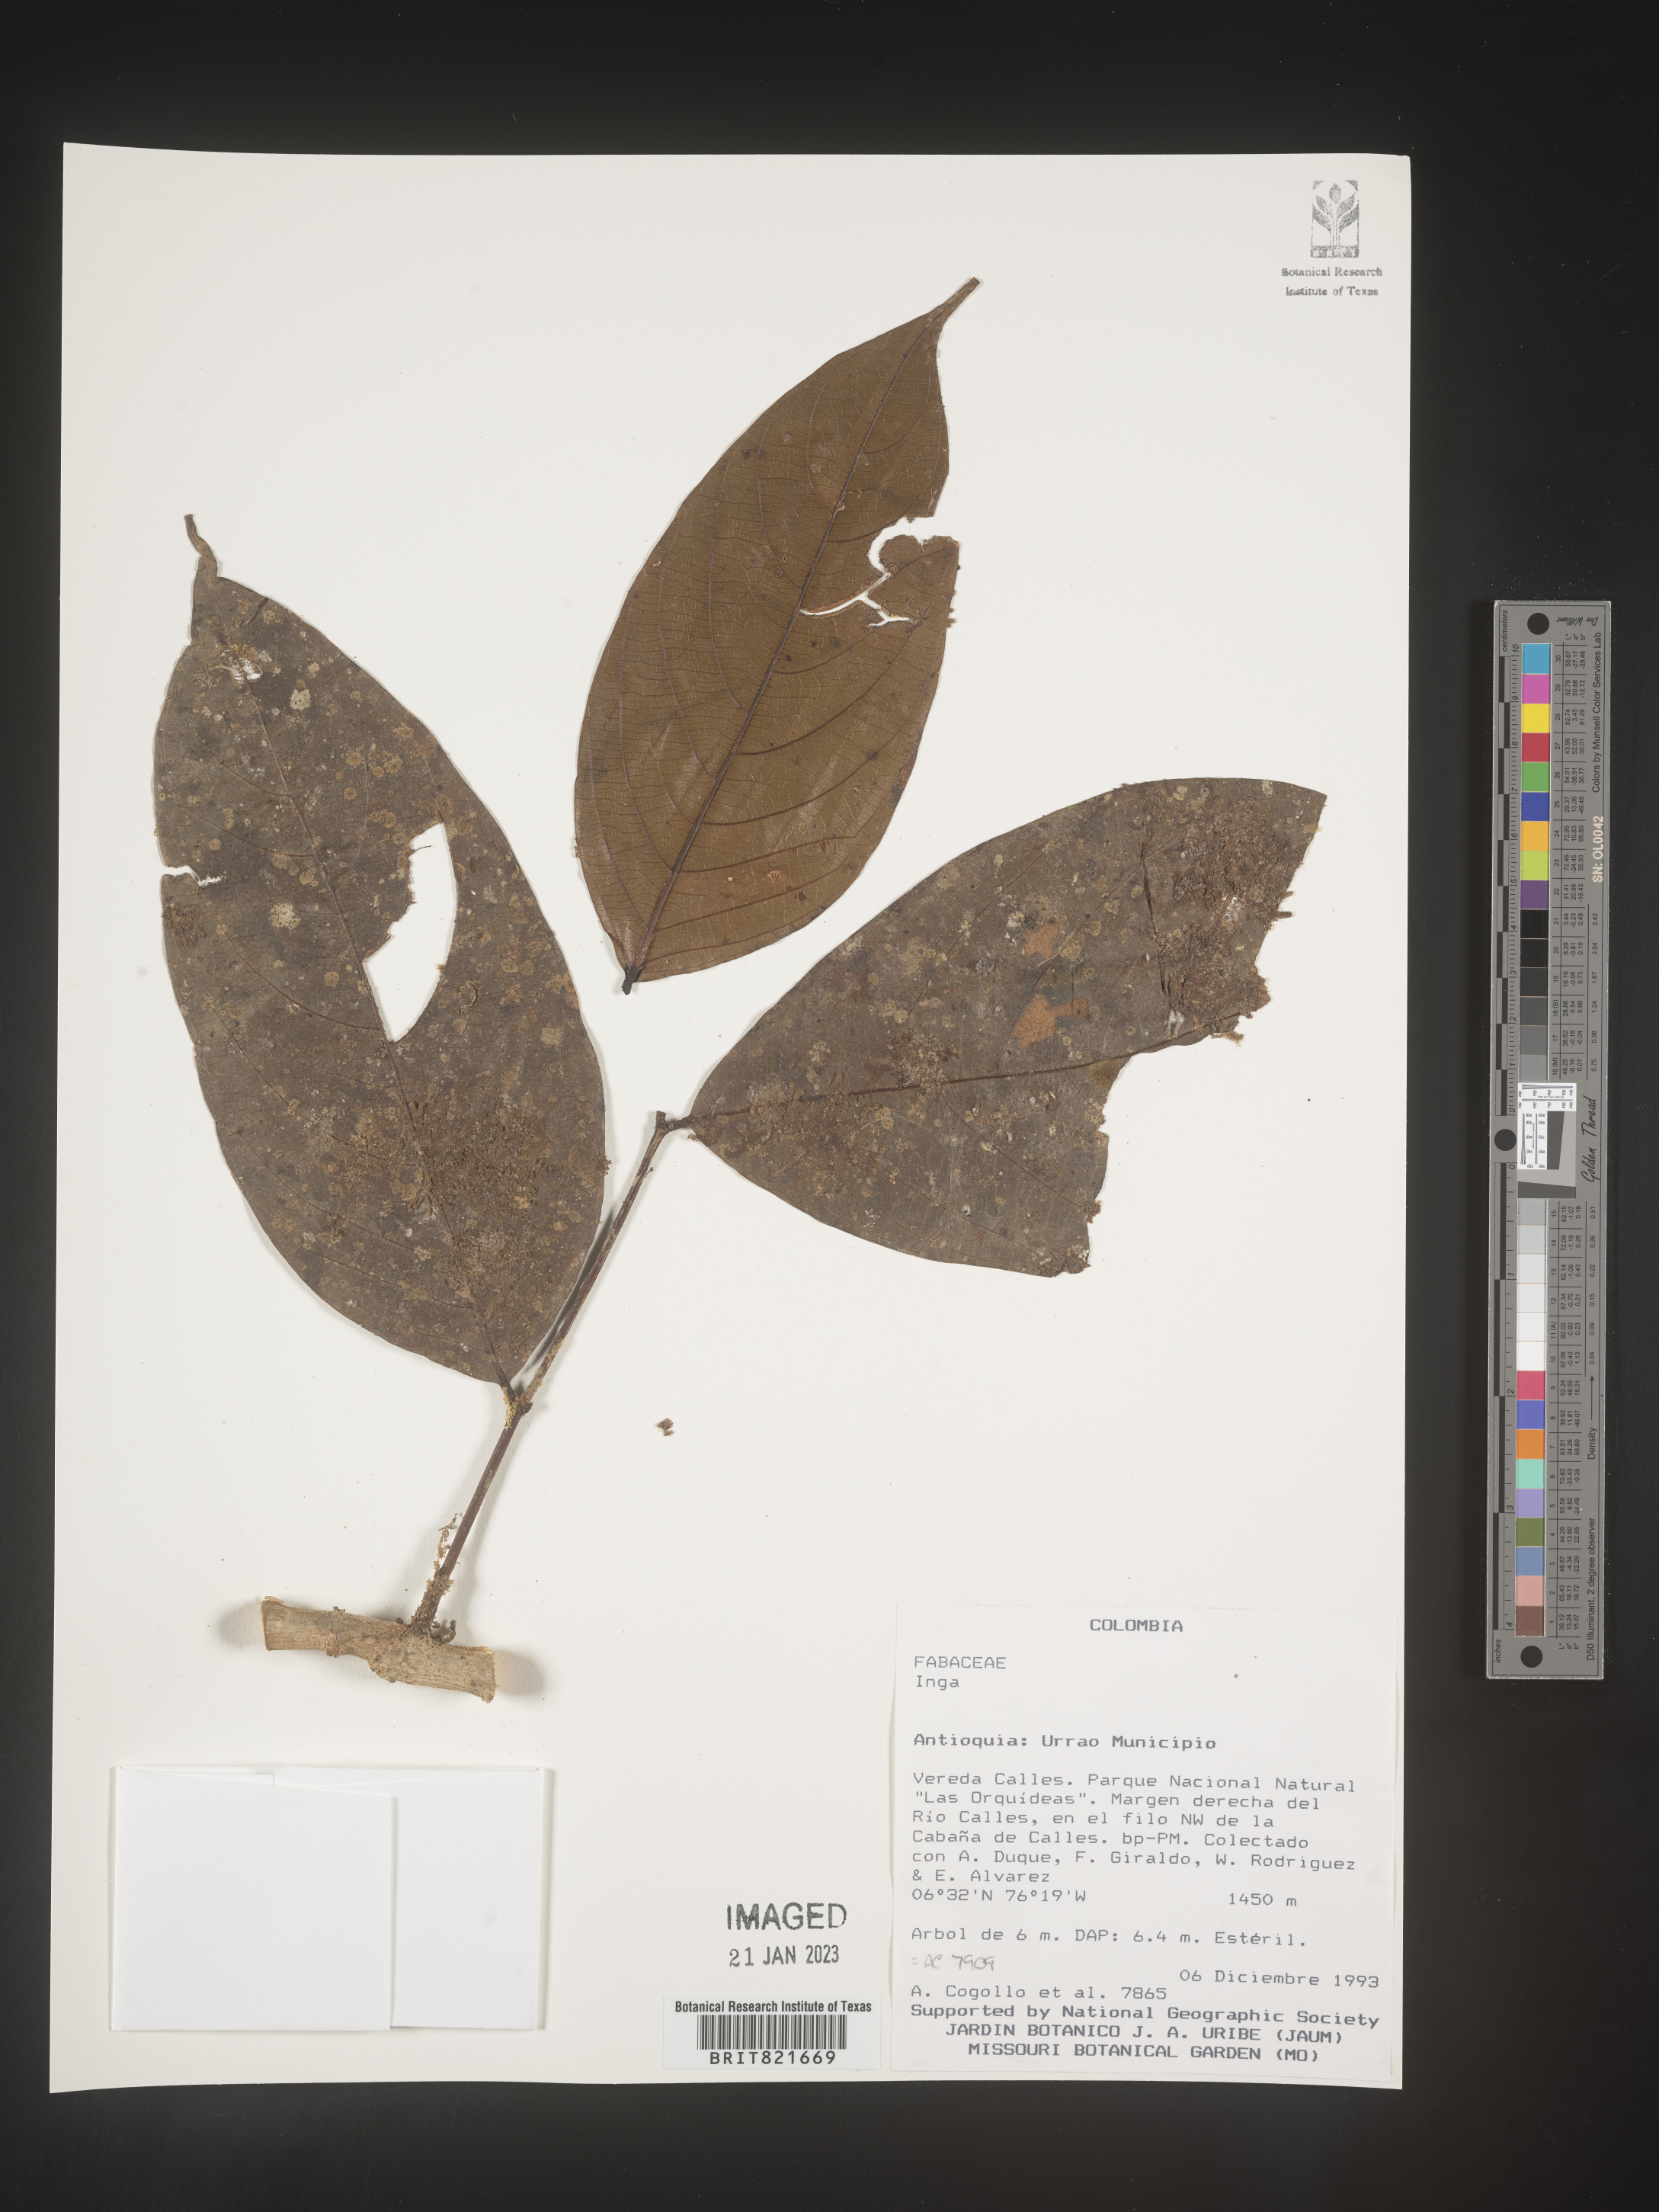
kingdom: Plantae
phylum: Tracheophyta
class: Magnoliopsida
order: Fabales
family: Fabaceae
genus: Inga
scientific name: Inga
